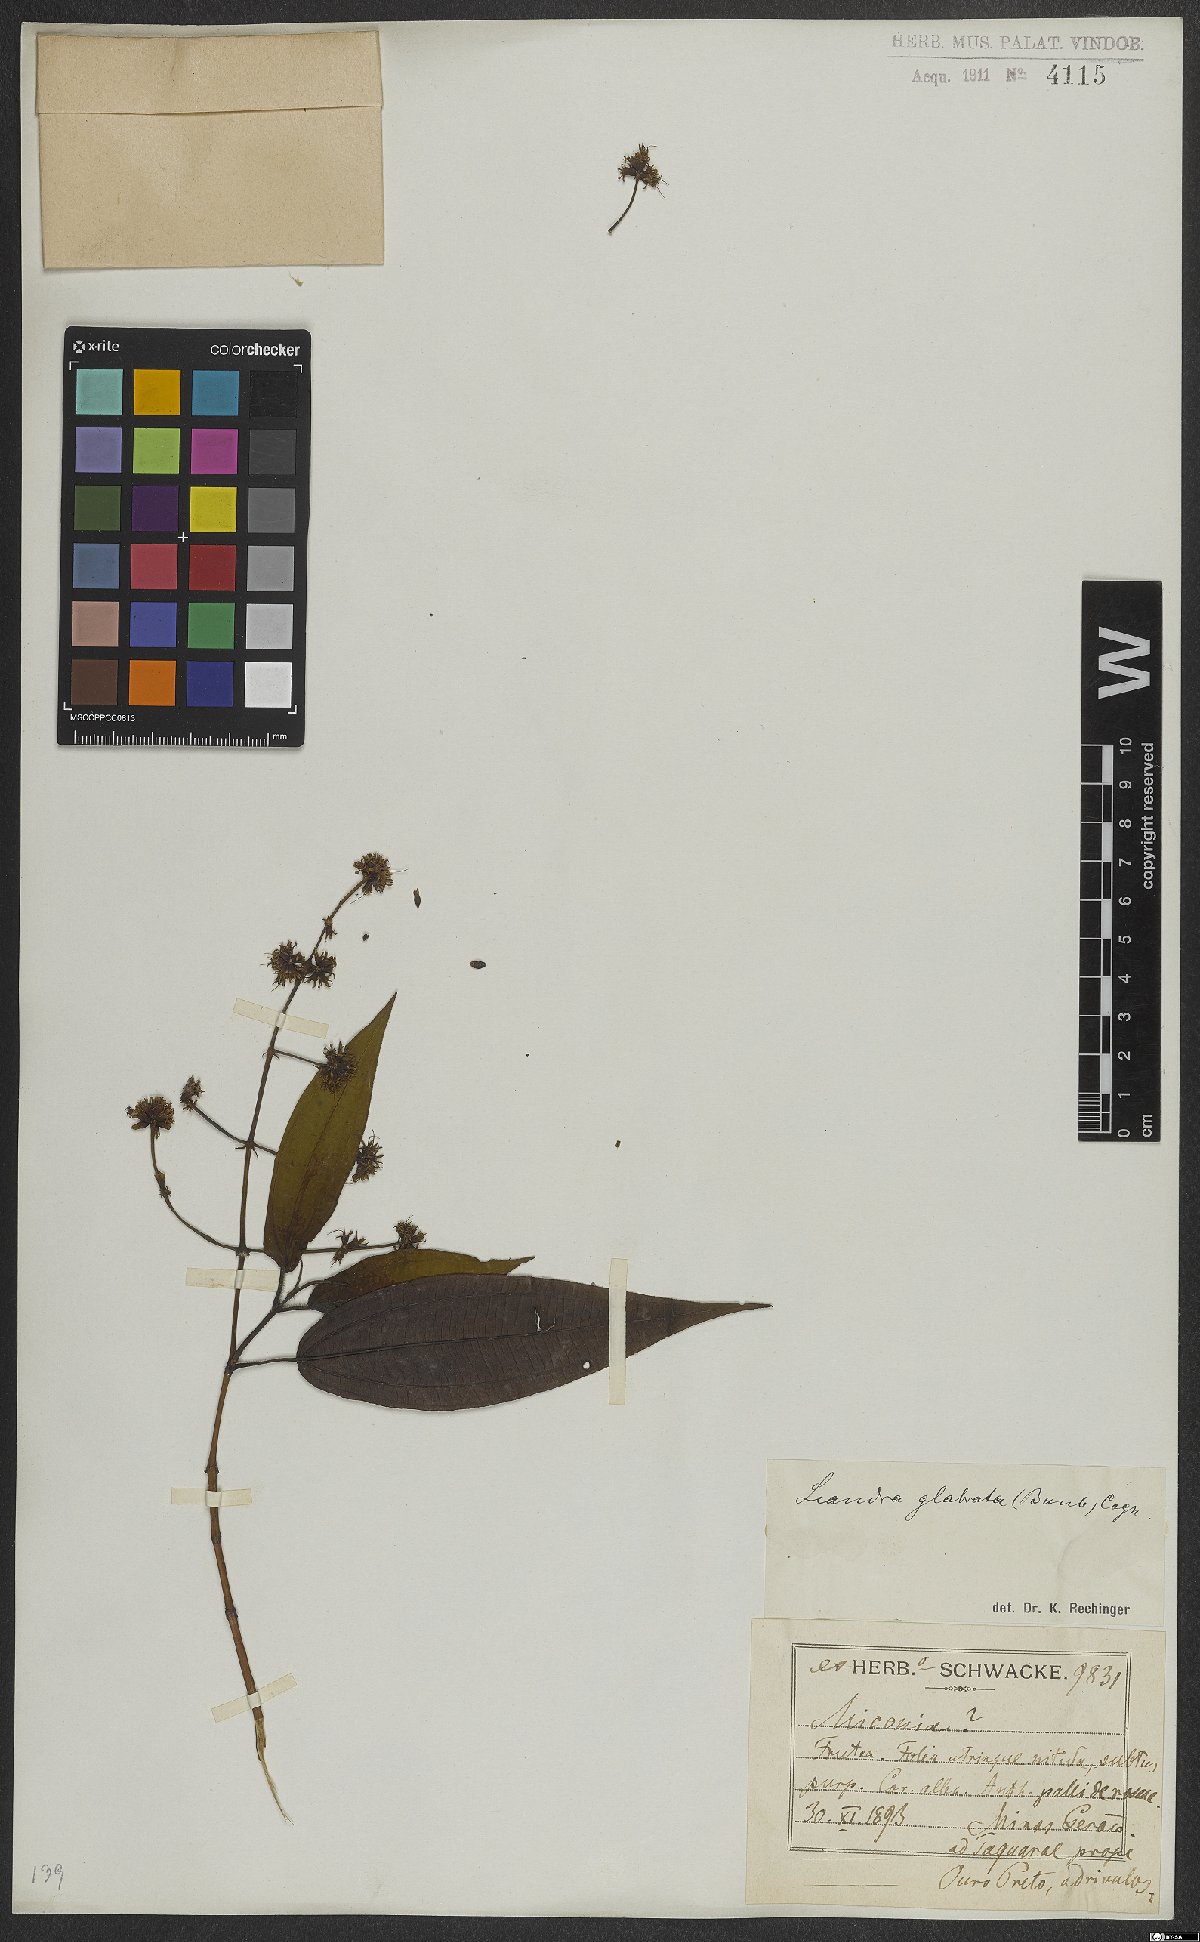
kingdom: Plantae
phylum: Tracheophyta
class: Magnoliopsida
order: Myrtales
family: Melastomataceae
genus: Miconia
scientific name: Miconia dolichostachya
